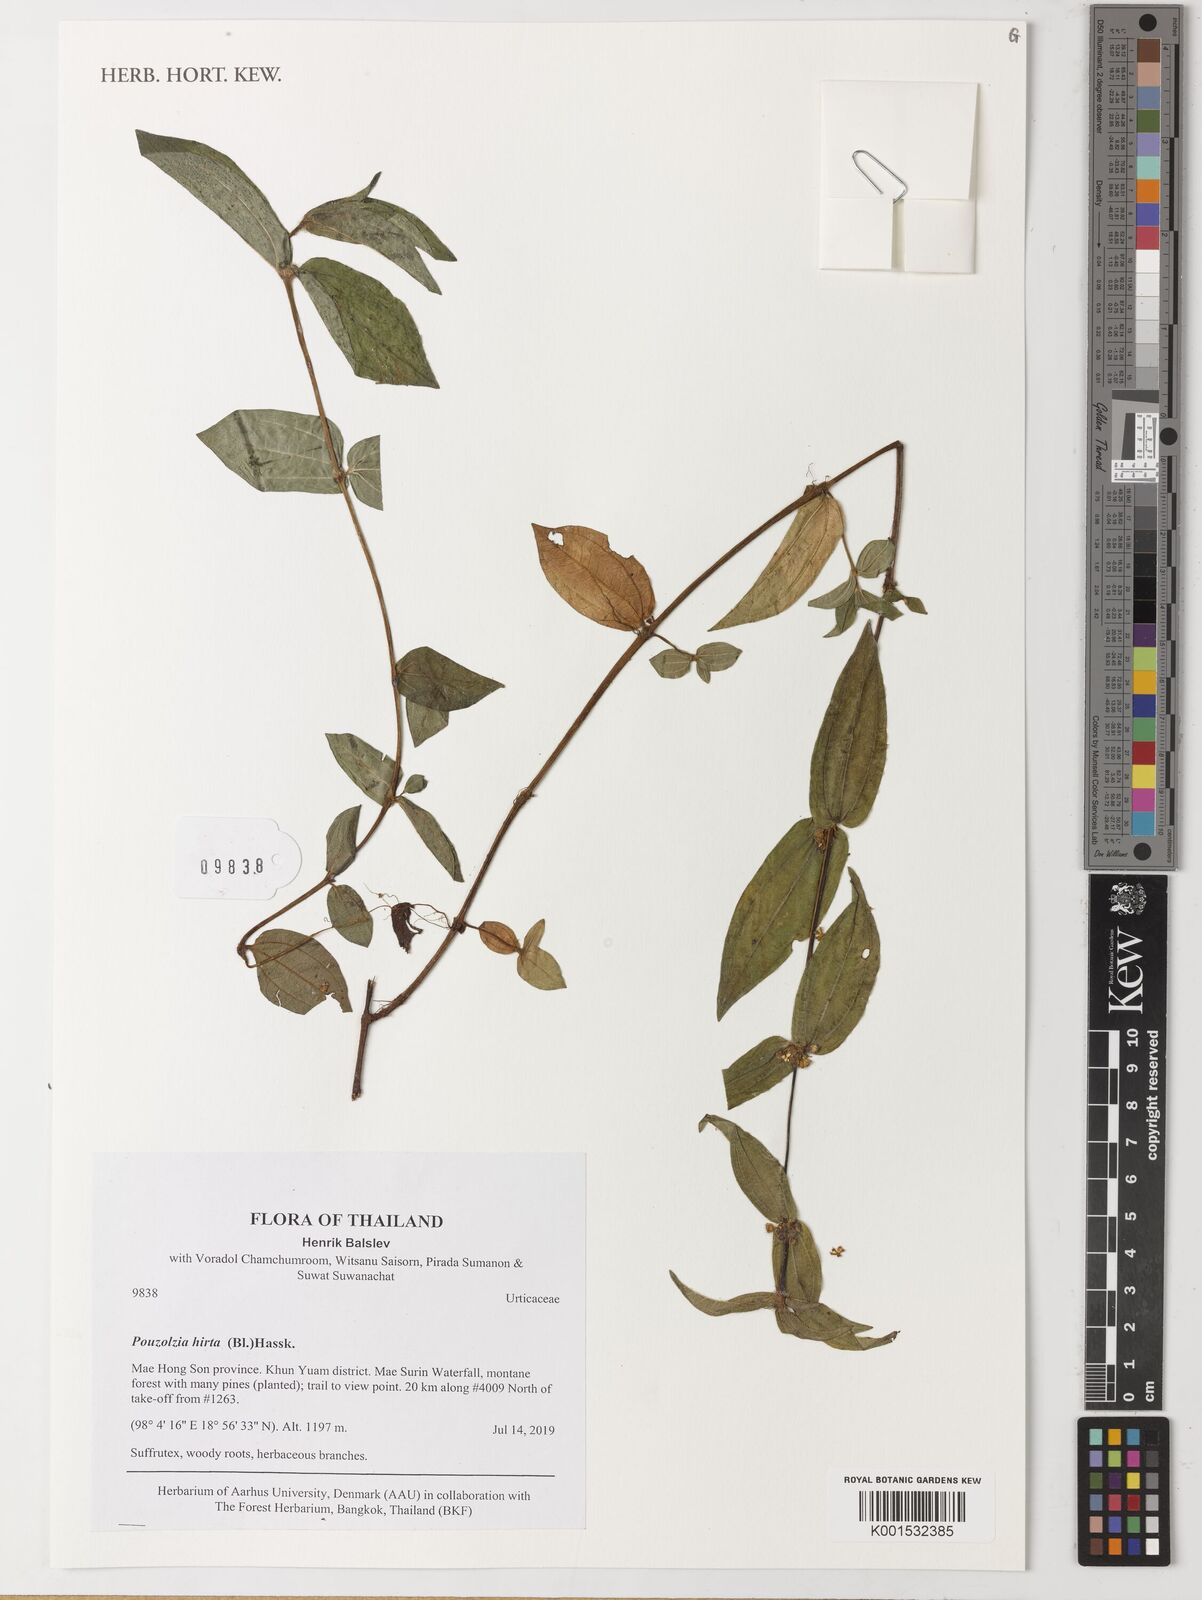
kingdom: Plantae
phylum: Tracheophyta
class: Magnoliopsida
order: Rosales
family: Urticaceae
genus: Gonostegia
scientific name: Gonostegia triandra
